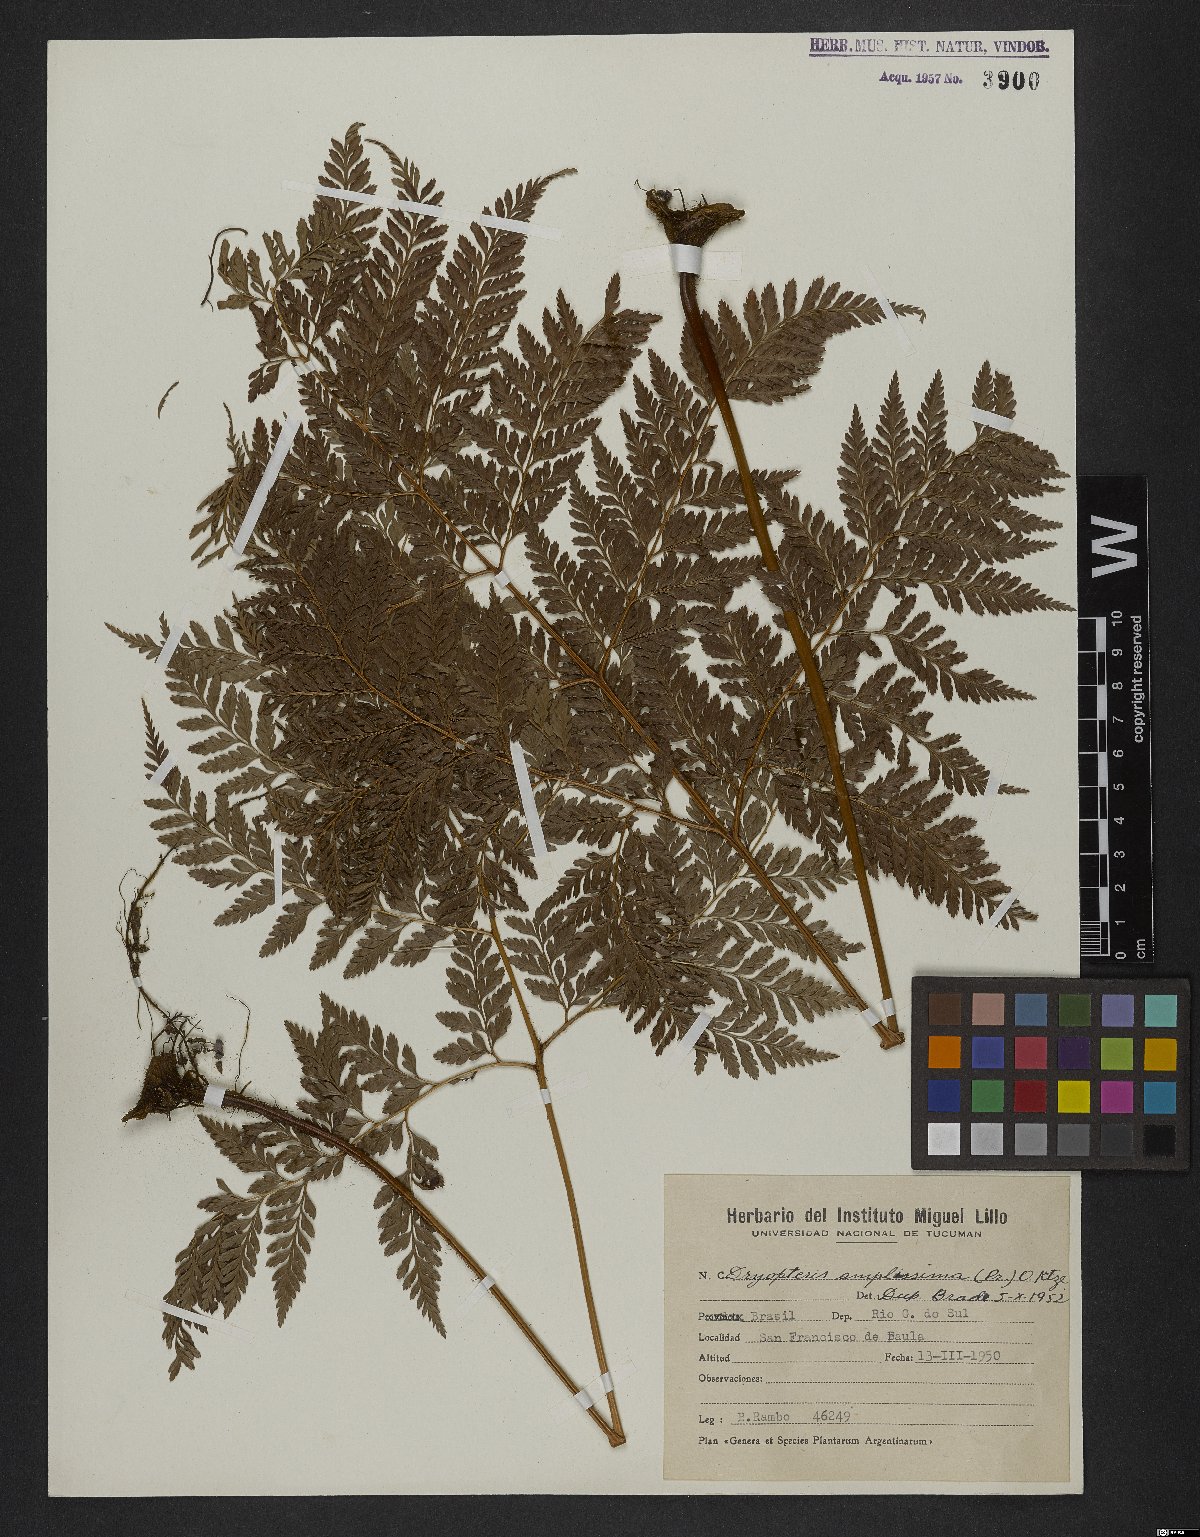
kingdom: Plantae
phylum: Tracheophyta
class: Polypodiopsida
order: Polypodiales
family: Dryopteridaceae
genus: Lastreopsis
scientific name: Lastreopsis amplissima
